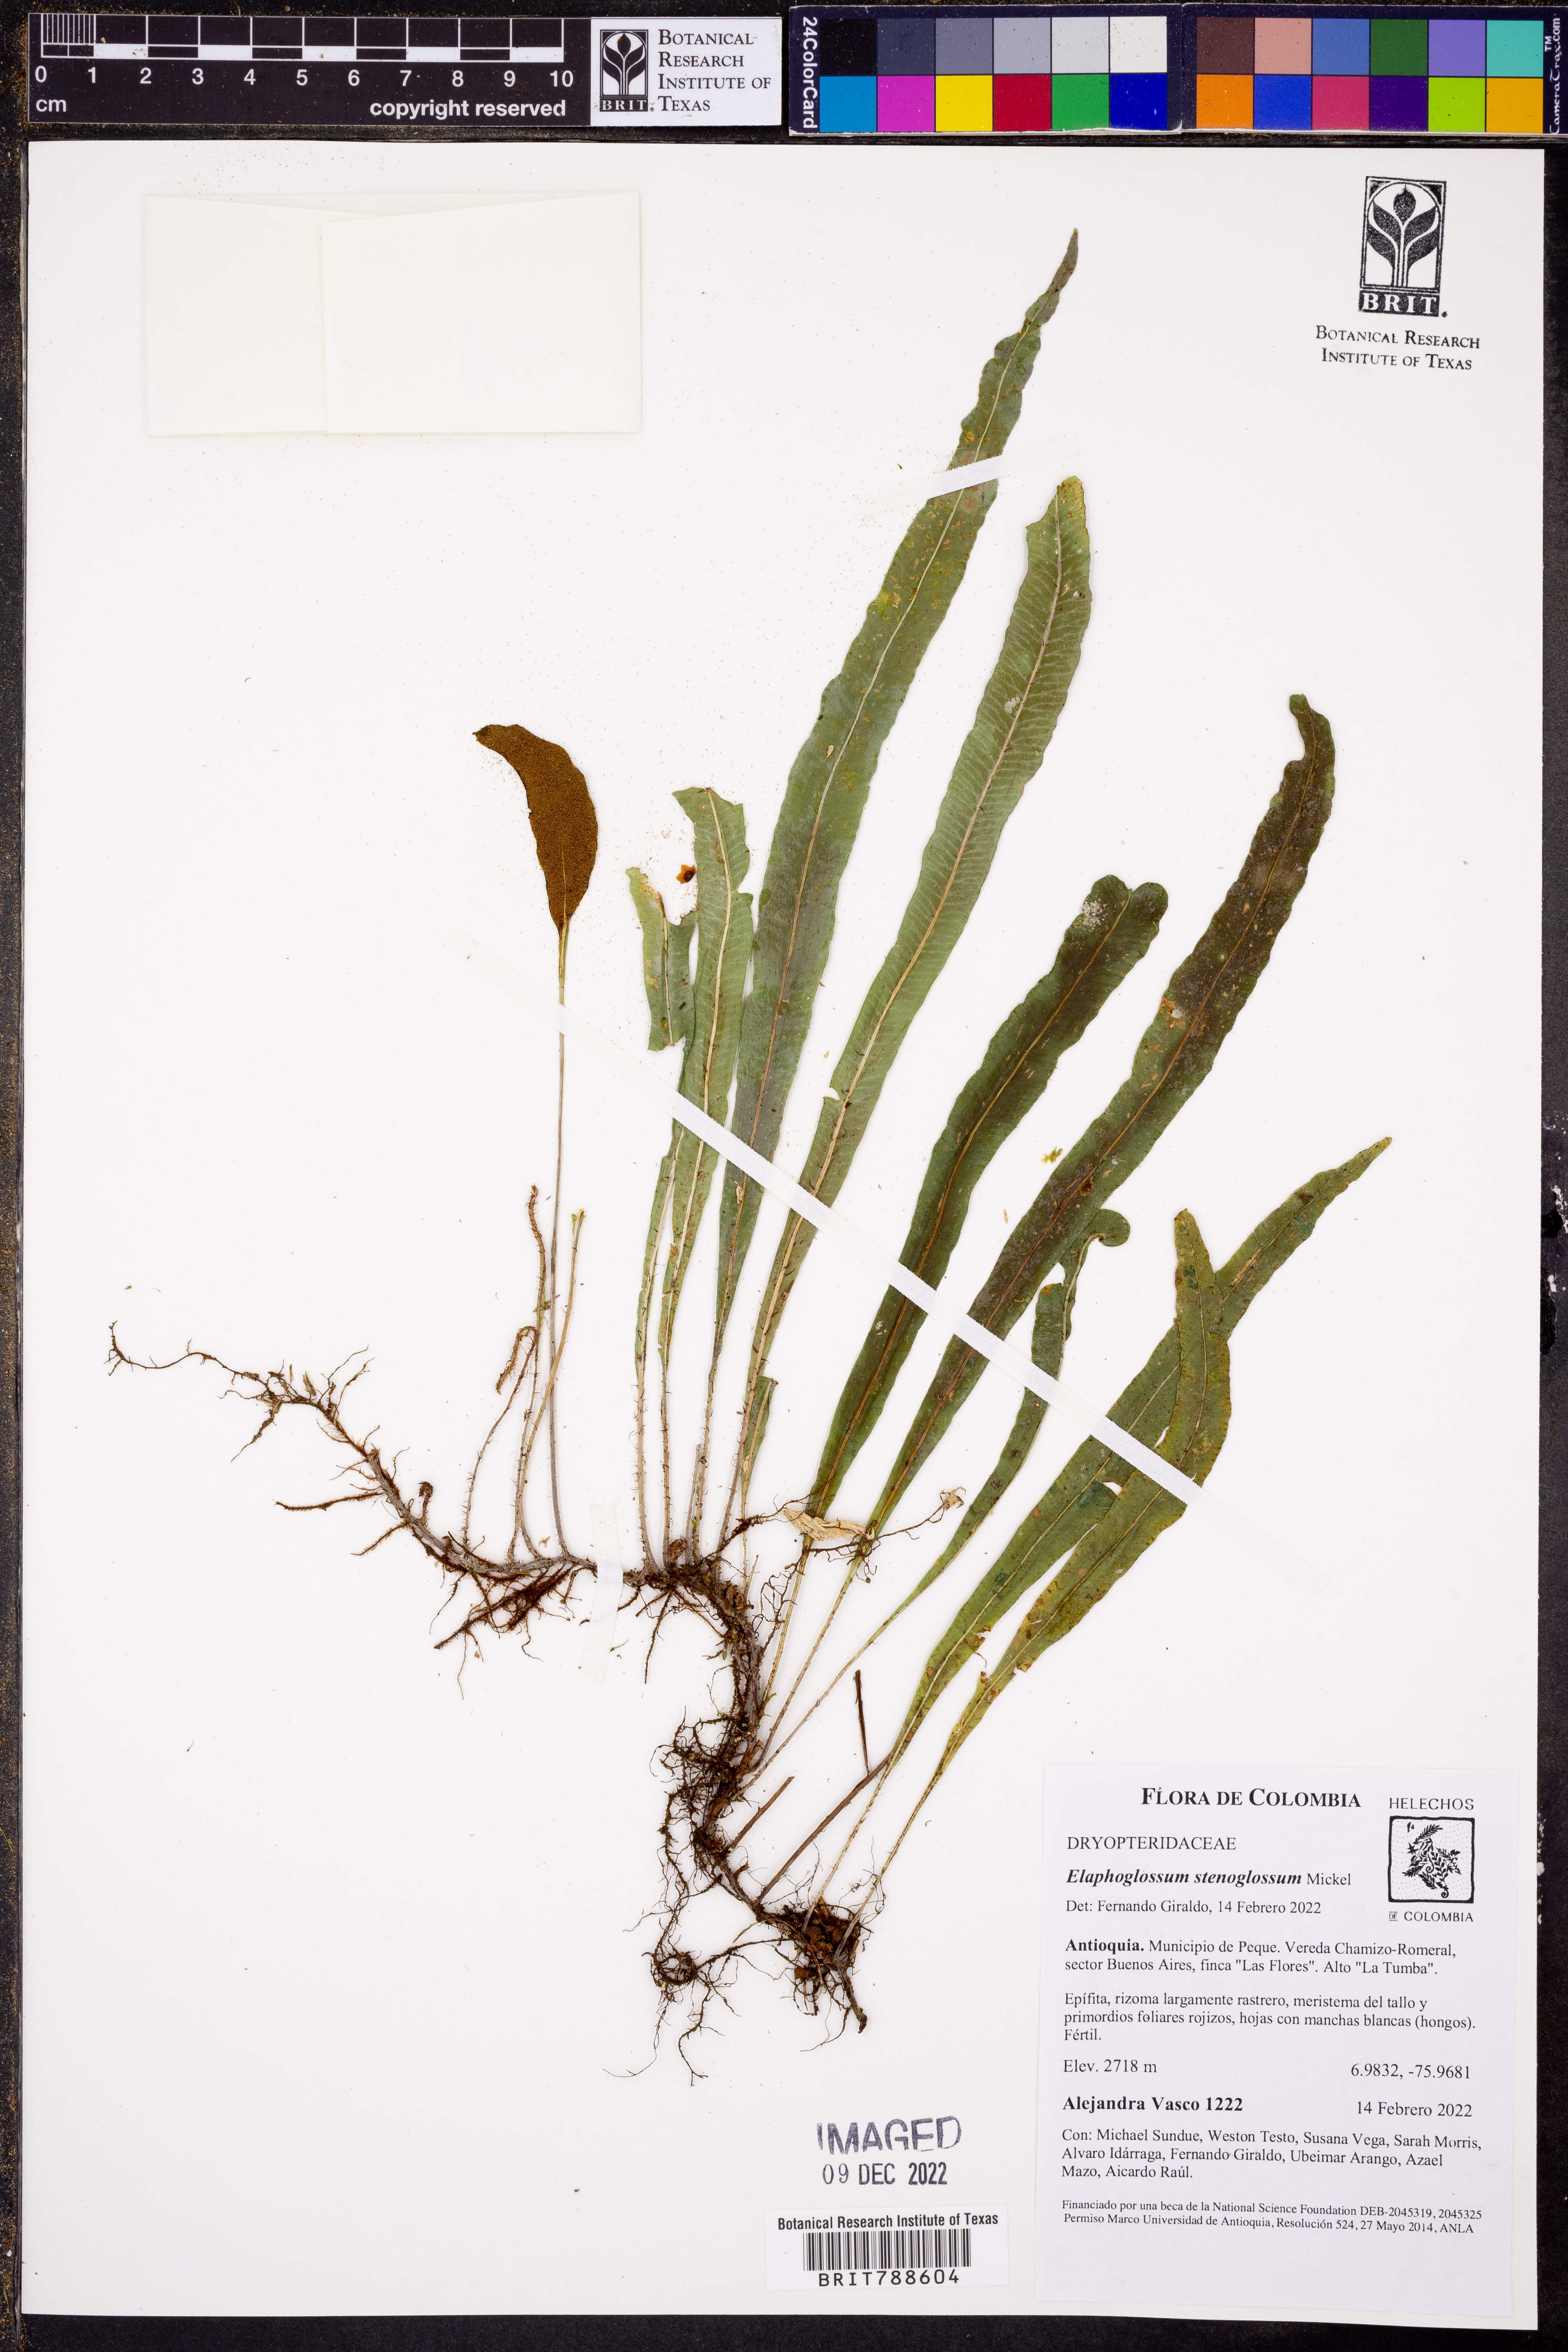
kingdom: Plantae
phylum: Tracheophyta
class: Polypodiopsida
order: Polypodiales
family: Dryopteridaceae
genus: Elaphoglossum
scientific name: Elaphoglossum stenoglossum
